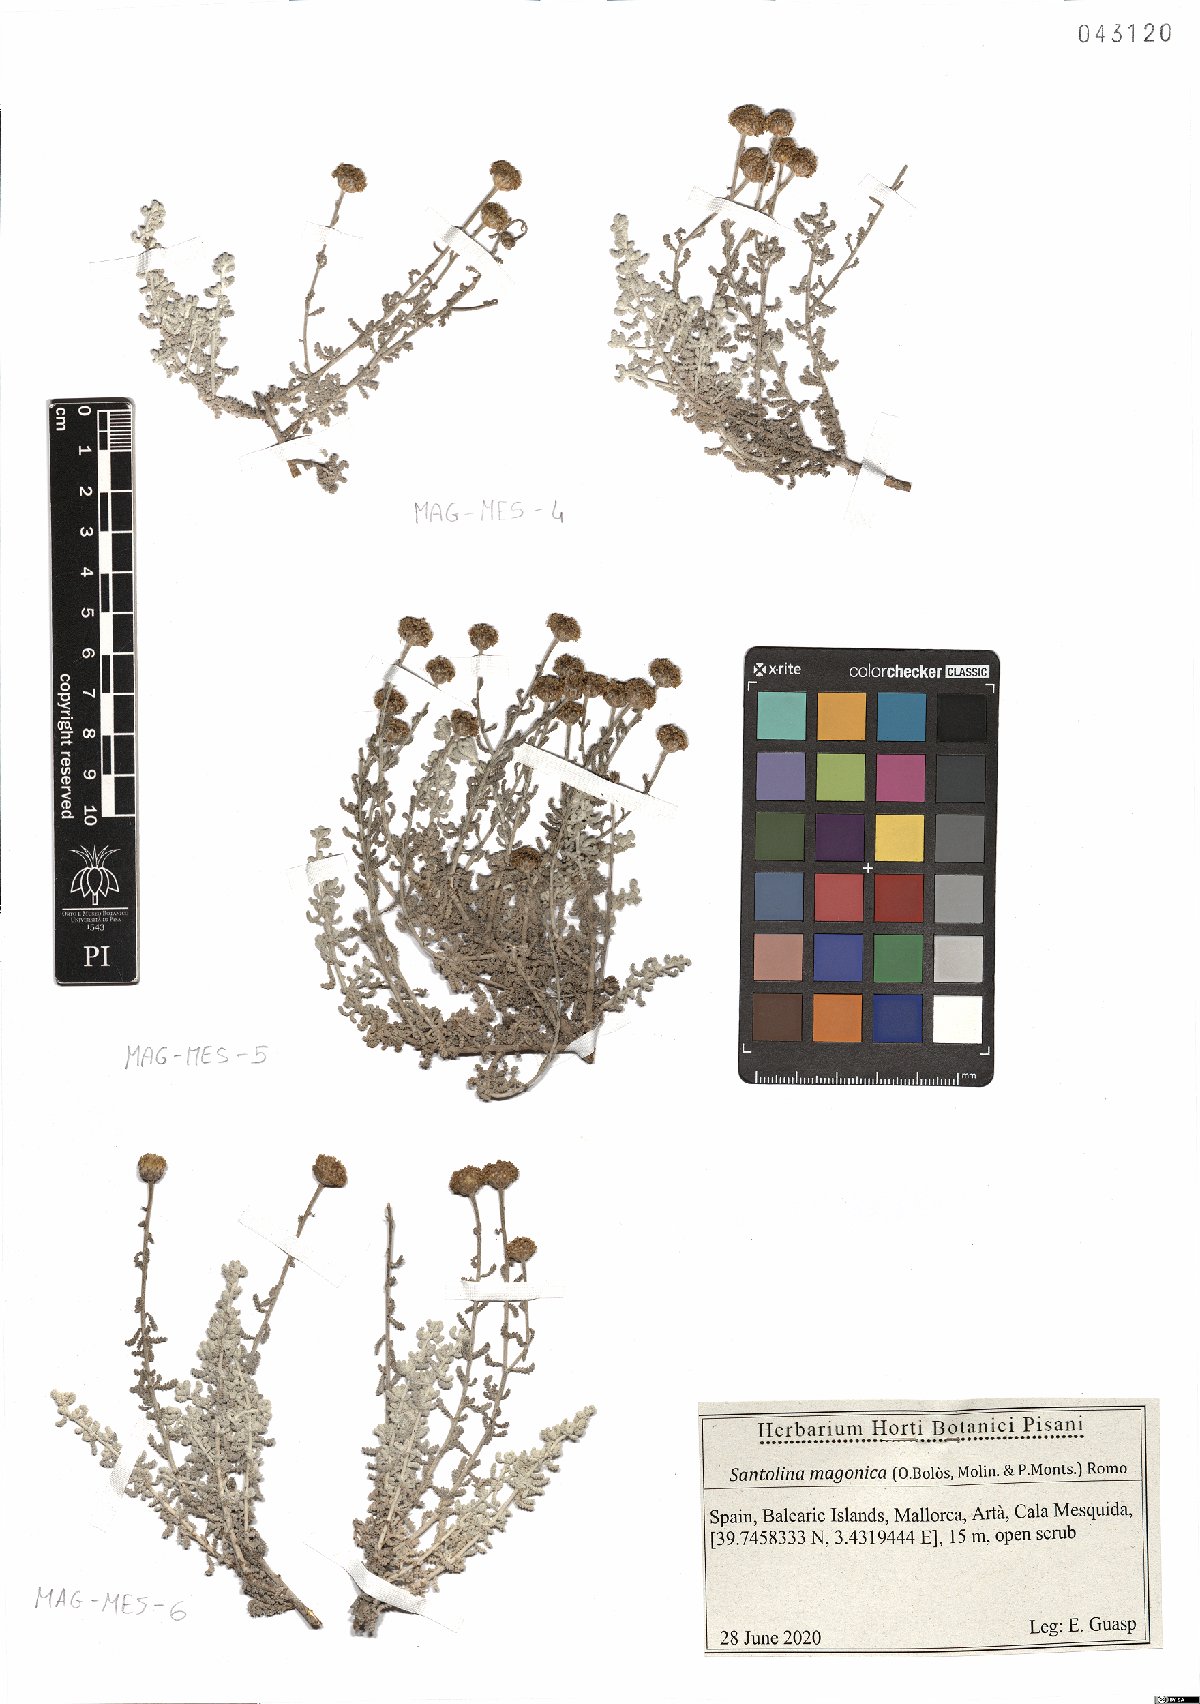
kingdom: Plantae
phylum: Tracheophyta
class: Magnoliopsida
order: Asterales
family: Asteraceae
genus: Santolina
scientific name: Santolina magonica
